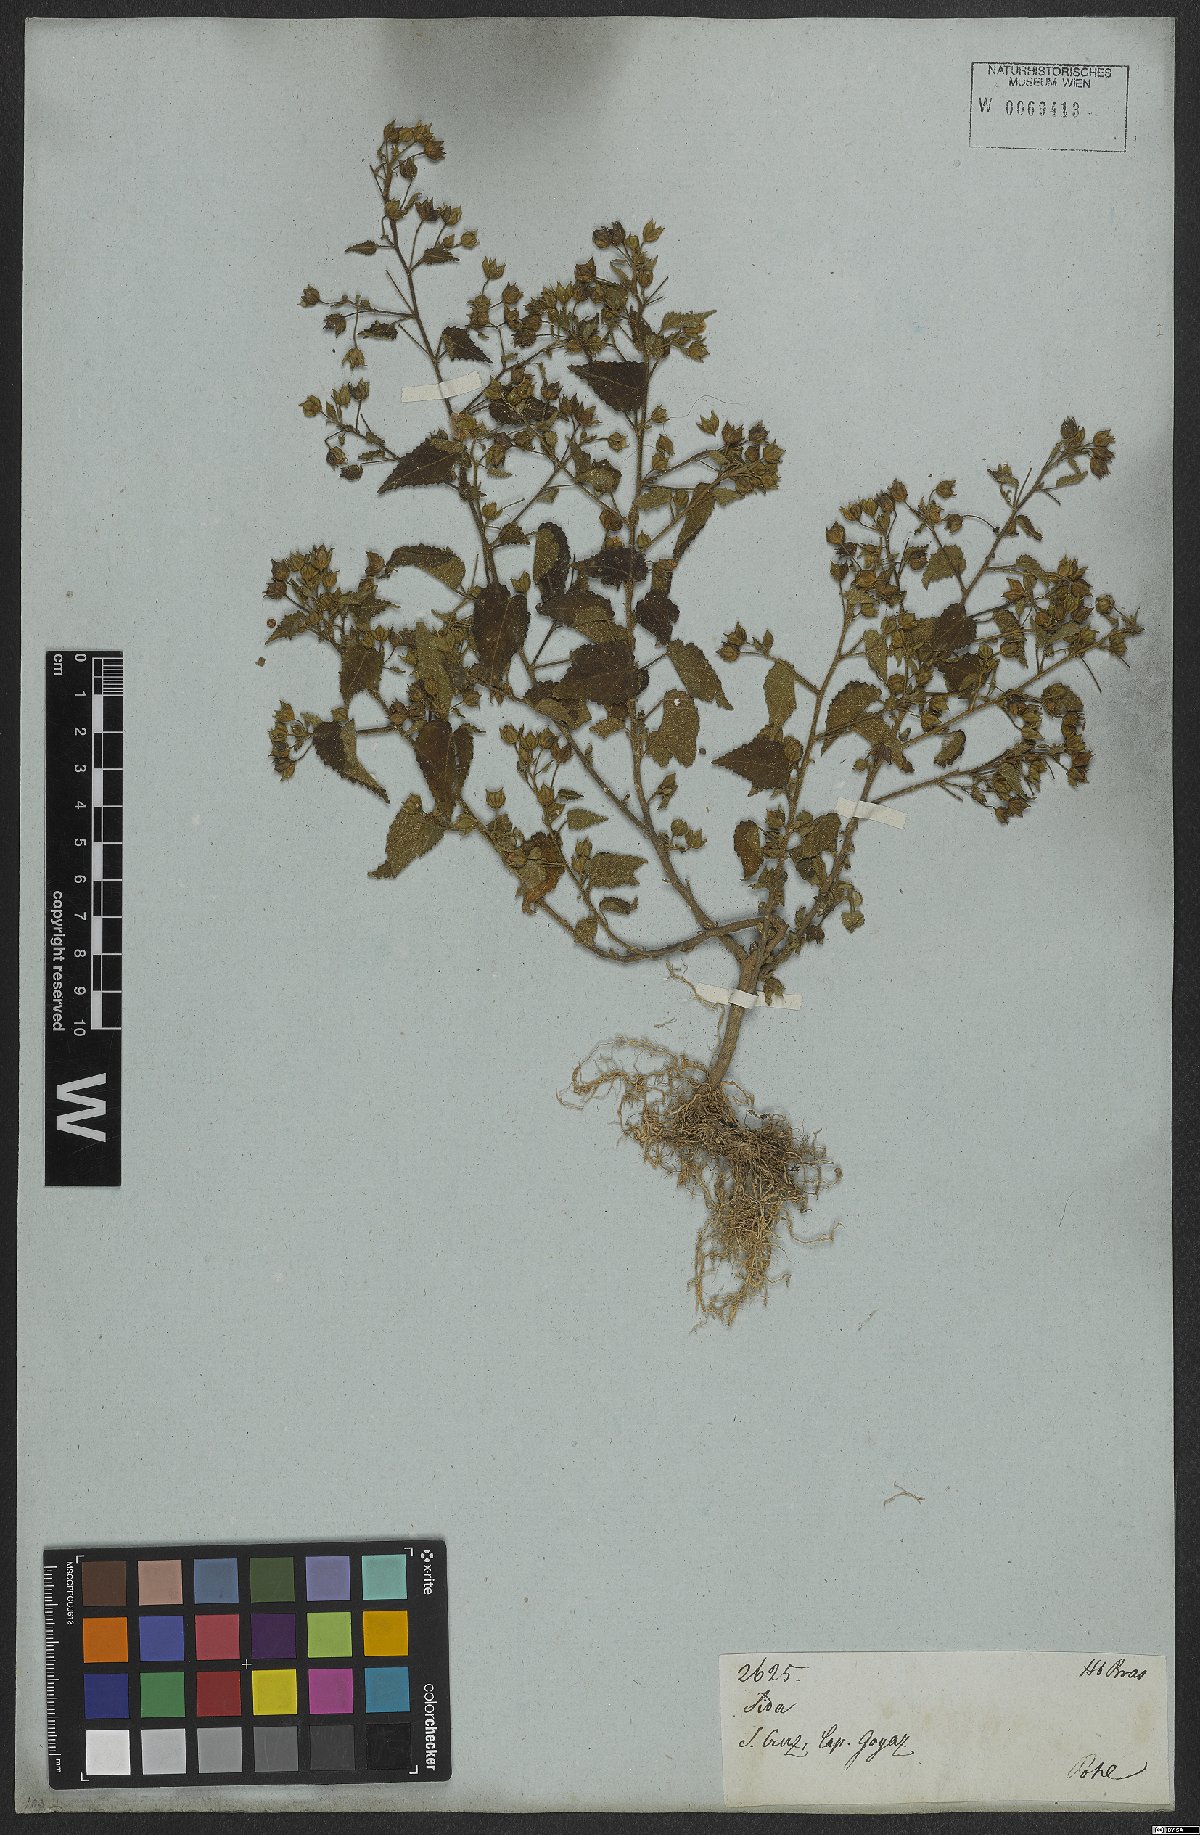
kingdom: Plantae
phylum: Tracheophyta
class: Magnoliopsida
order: Malvales
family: Malvaceae
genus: Sida
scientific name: Sida aurantiaca
